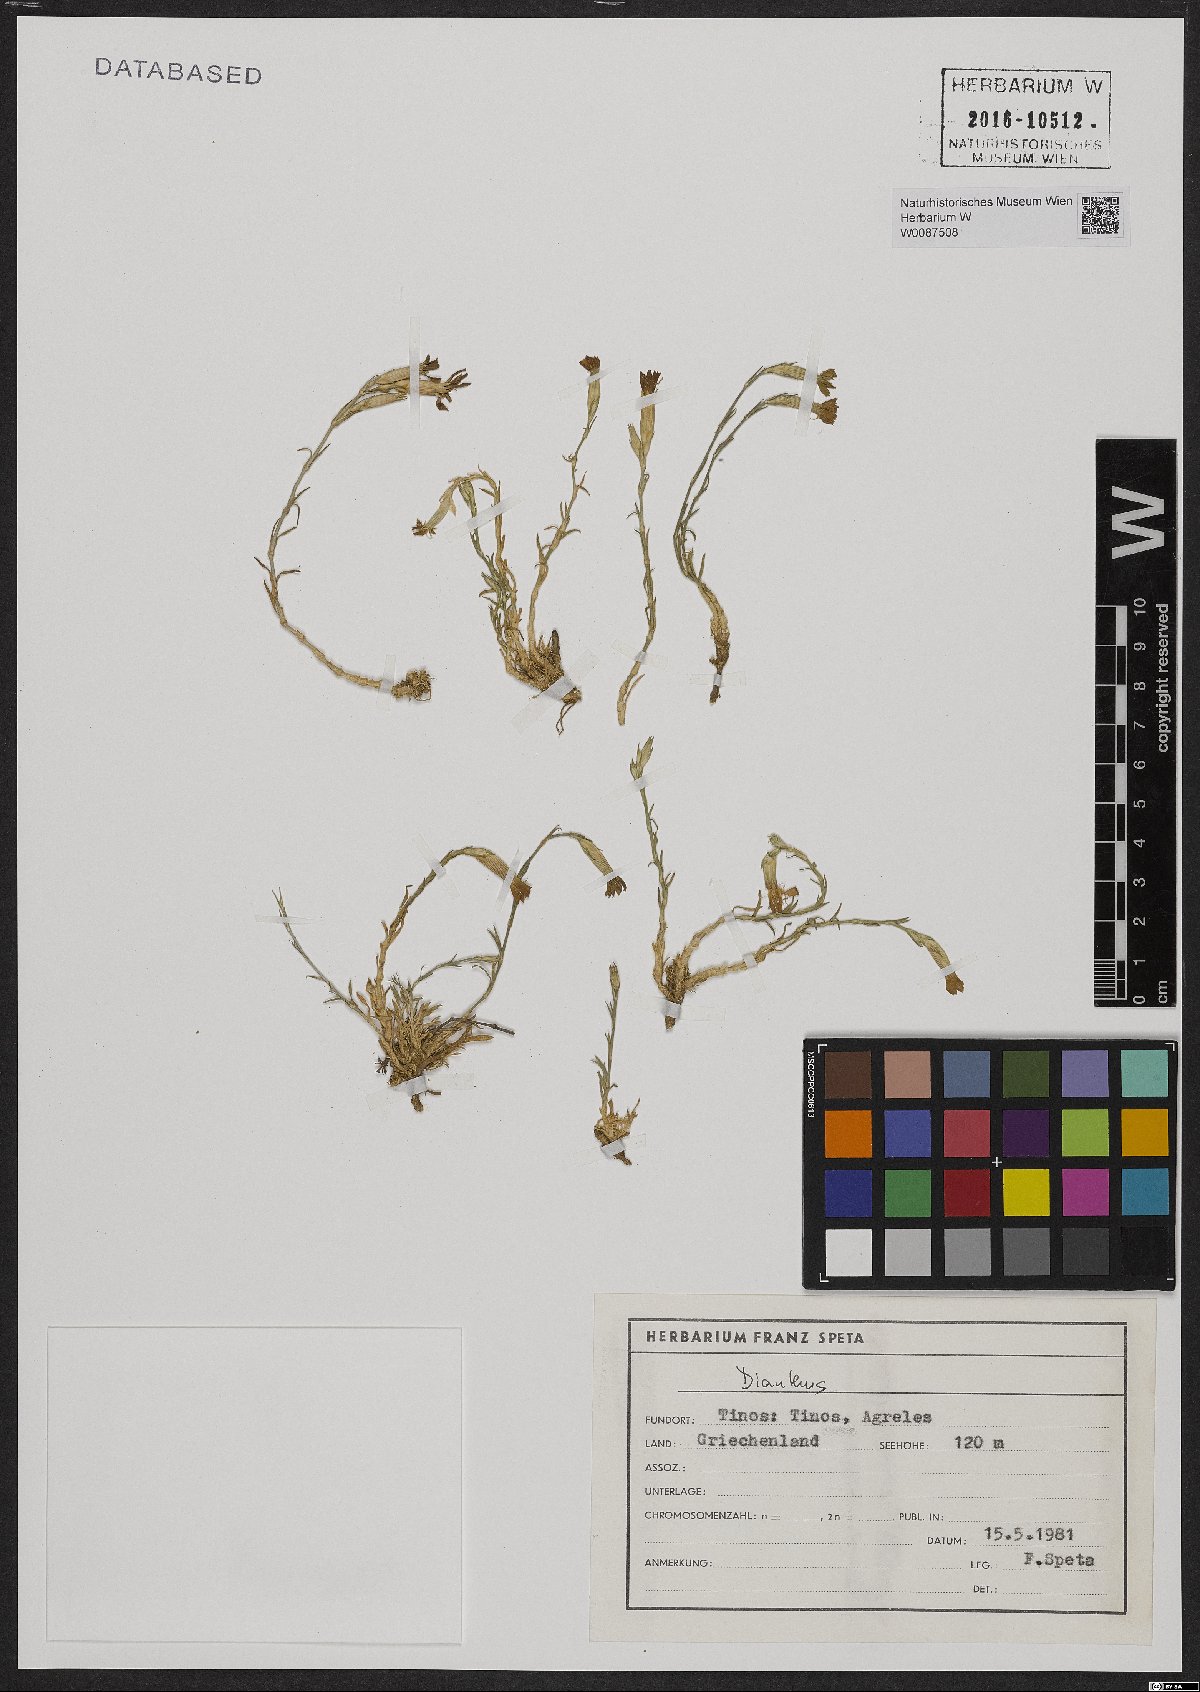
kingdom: Plantae
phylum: Tracheophyta
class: Magnoliopsida
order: Caryophyllales
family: Caryophyllaceae
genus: Dianthus
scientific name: Dianthus
